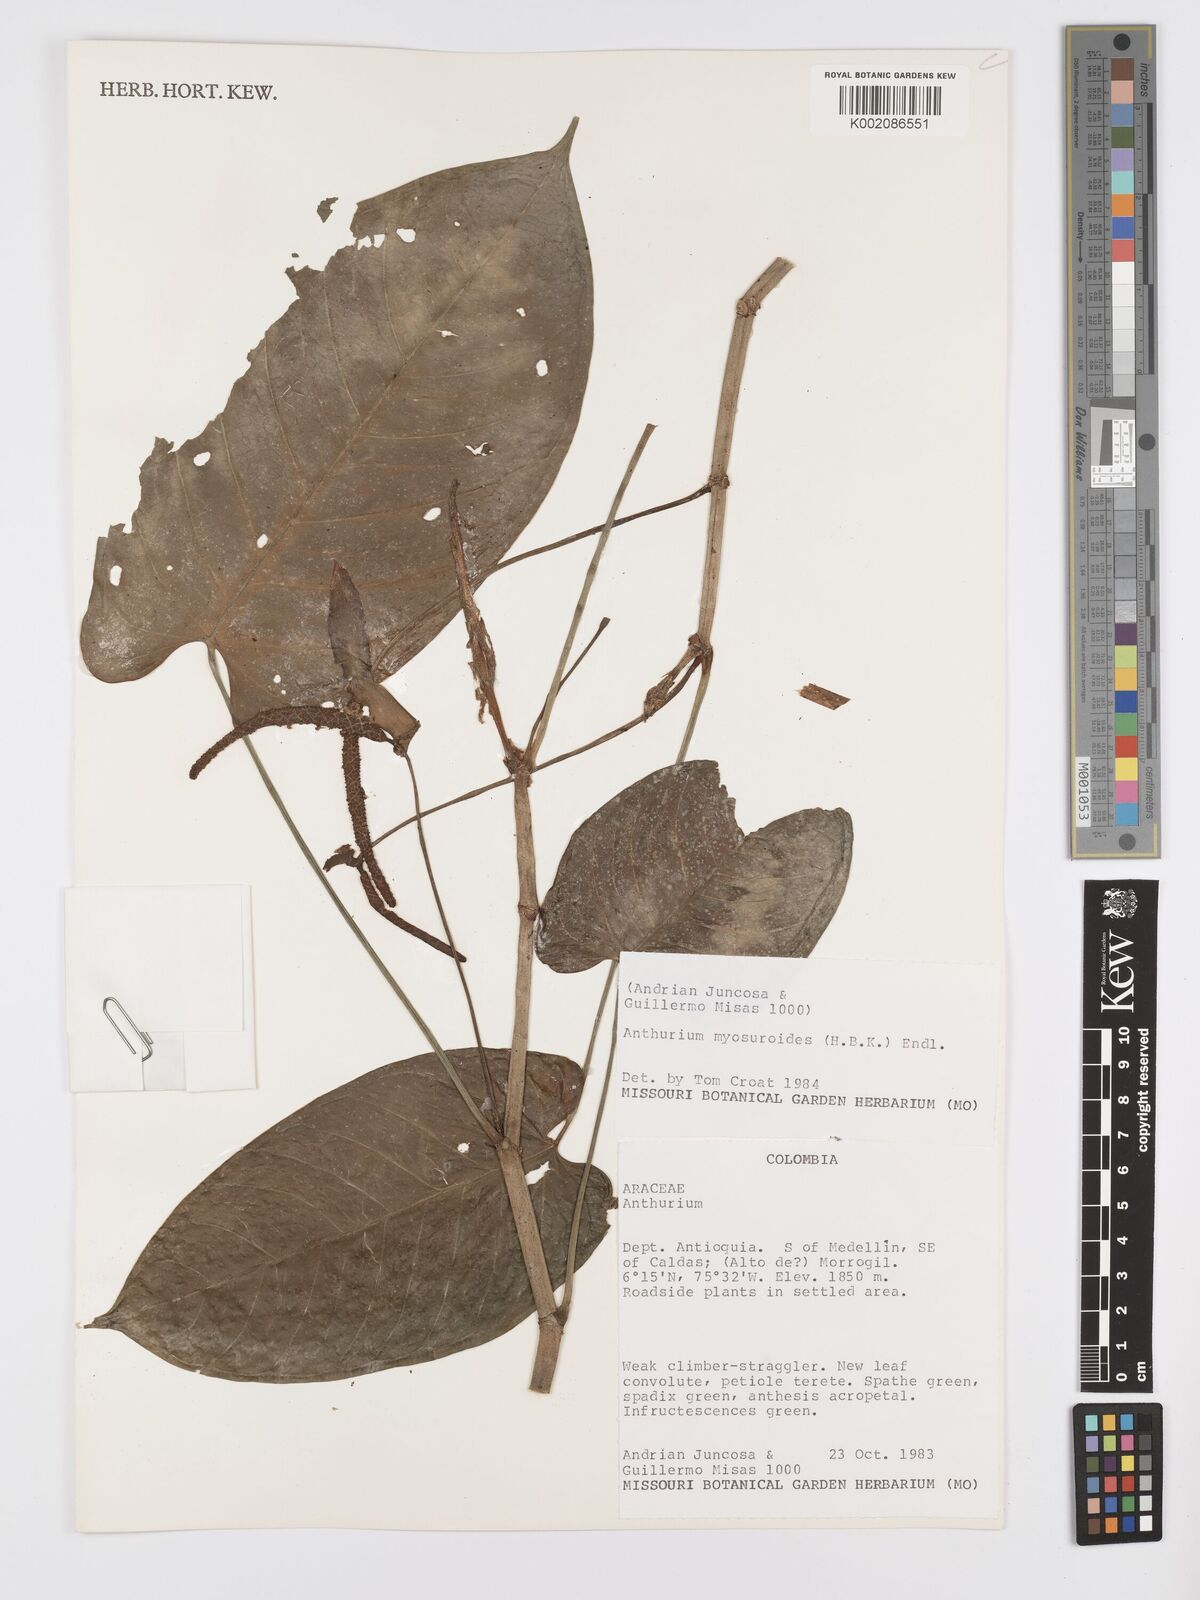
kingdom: Plantae
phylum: Tracheophyta
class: Liliopsida
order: Alismatales
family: Araceae
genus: Anthurium
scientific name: Anthurium myosuroides
